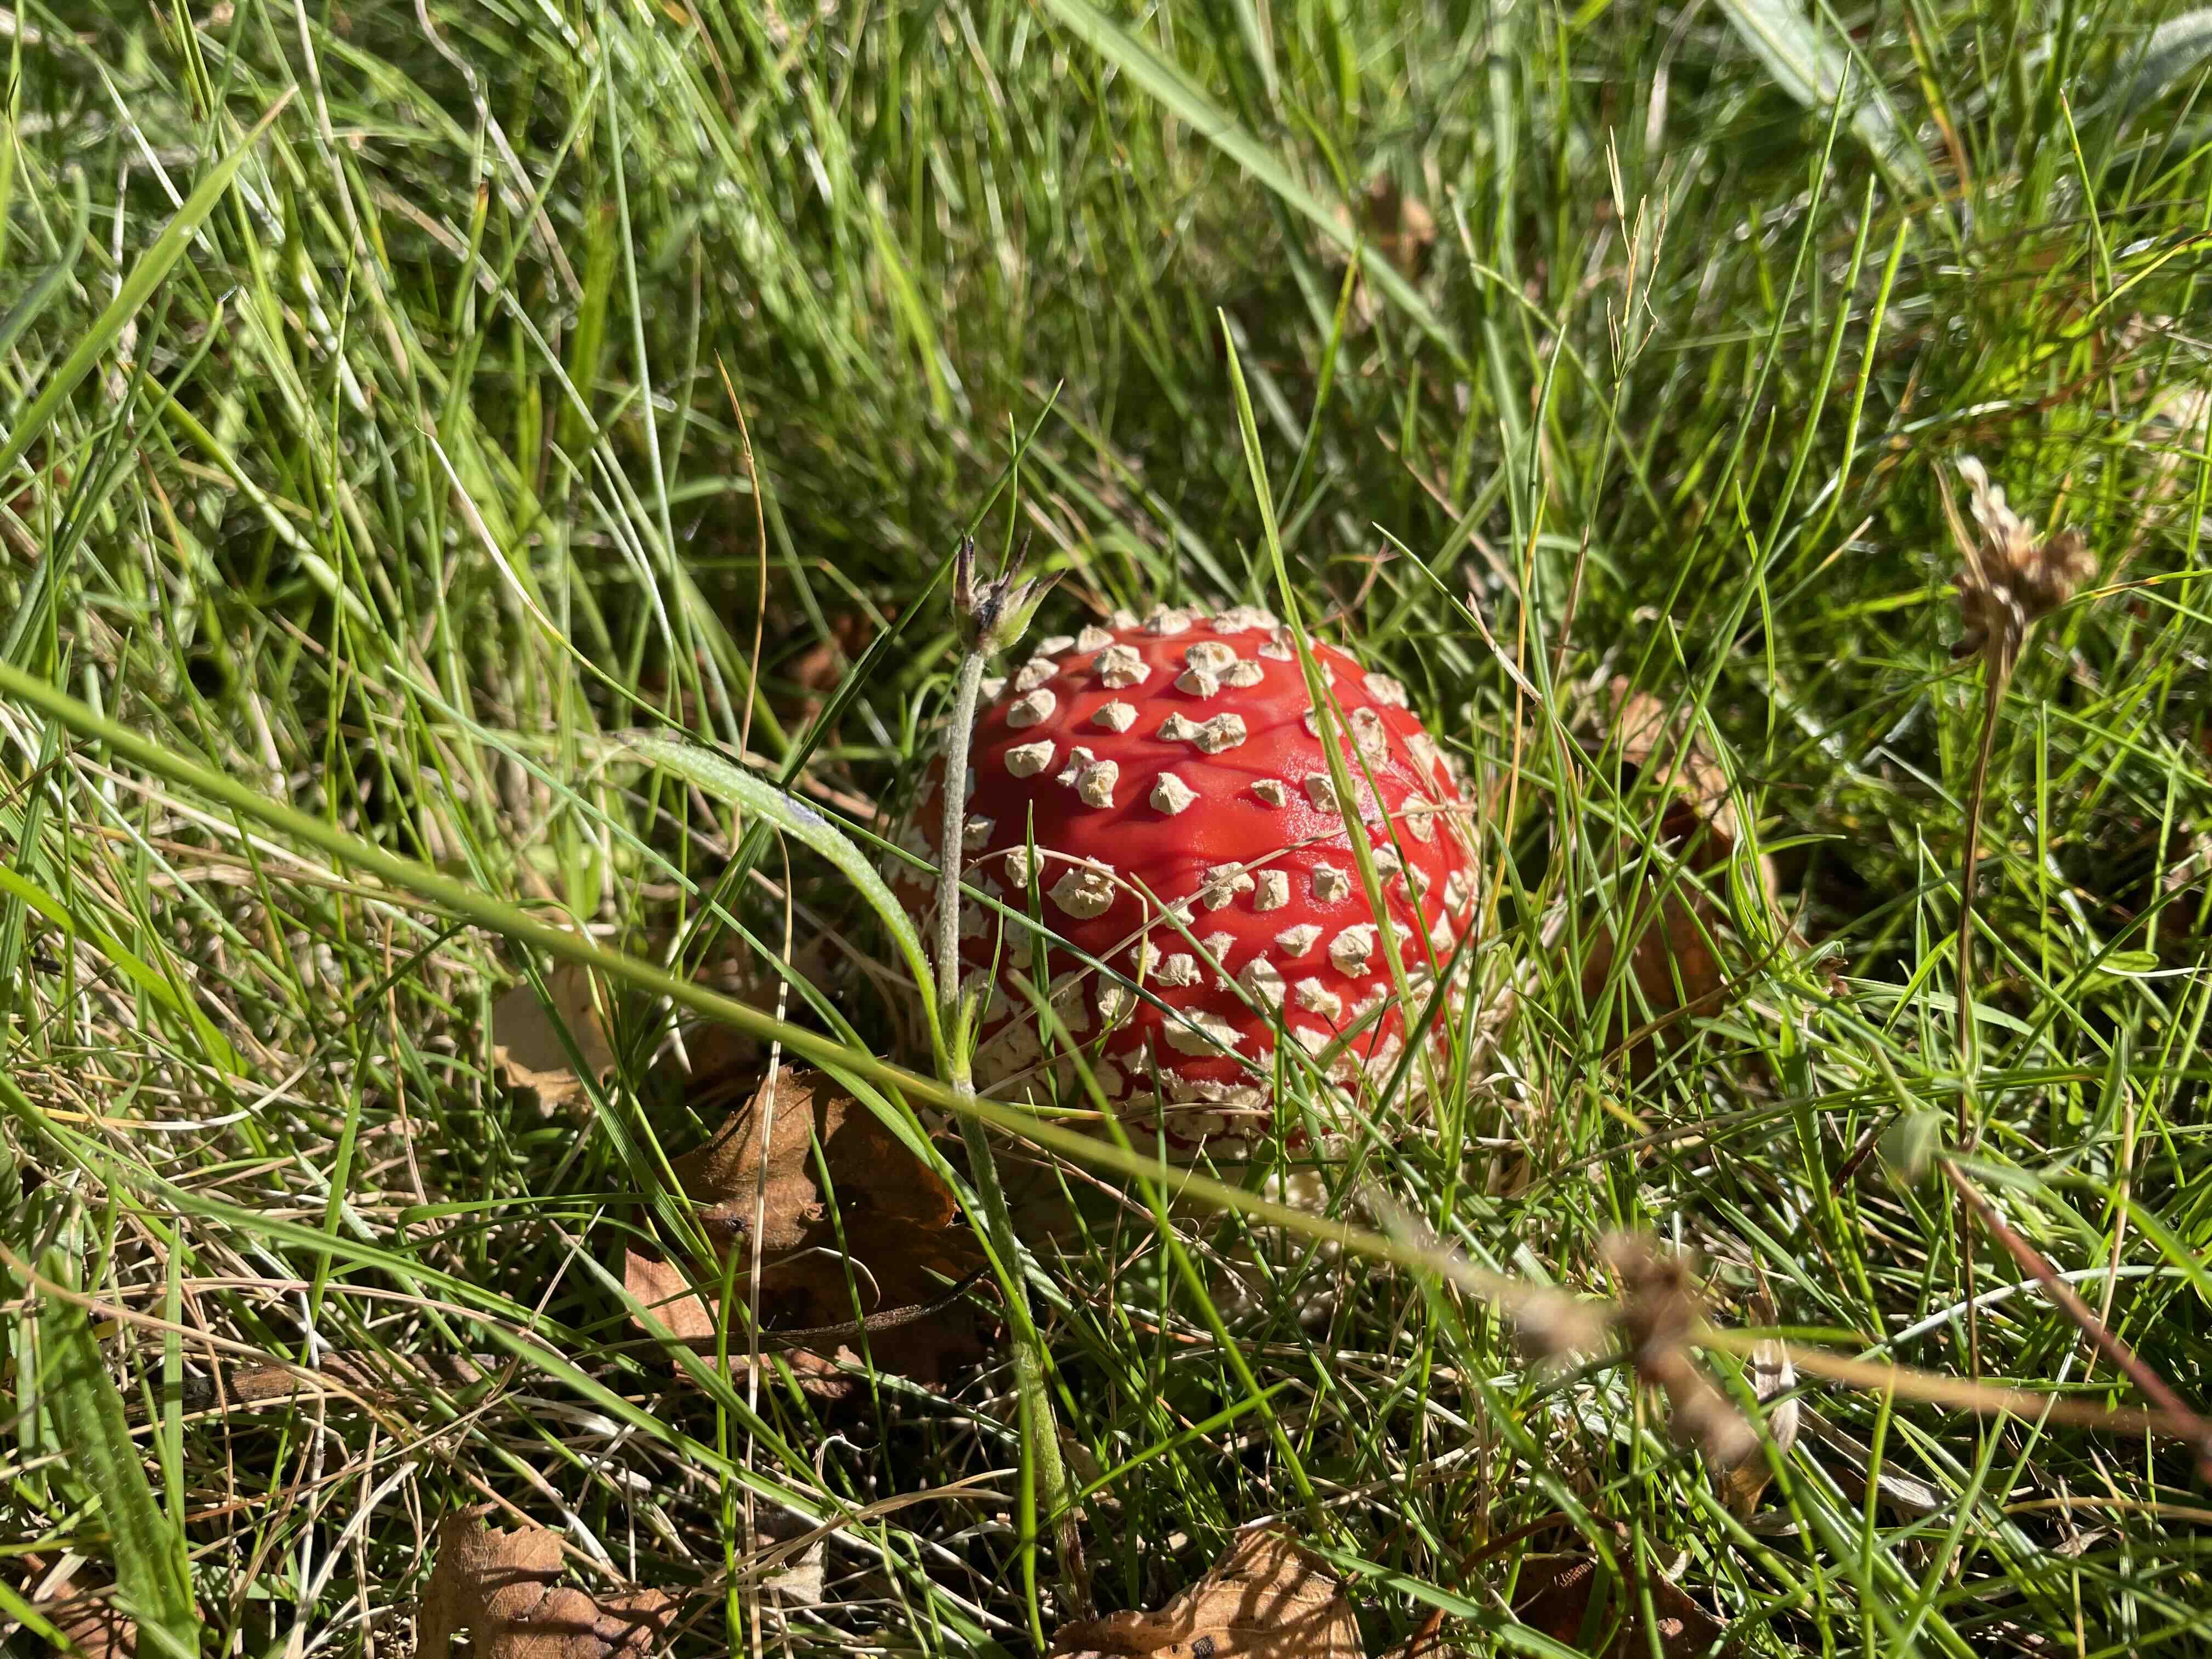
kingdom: Fungi
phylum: Basidiomycota
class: Agaricomycetes
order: Agaricales
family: Amanitaceae
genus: Amanita
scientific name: Amanita muscaria
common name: rød fluesvamp
